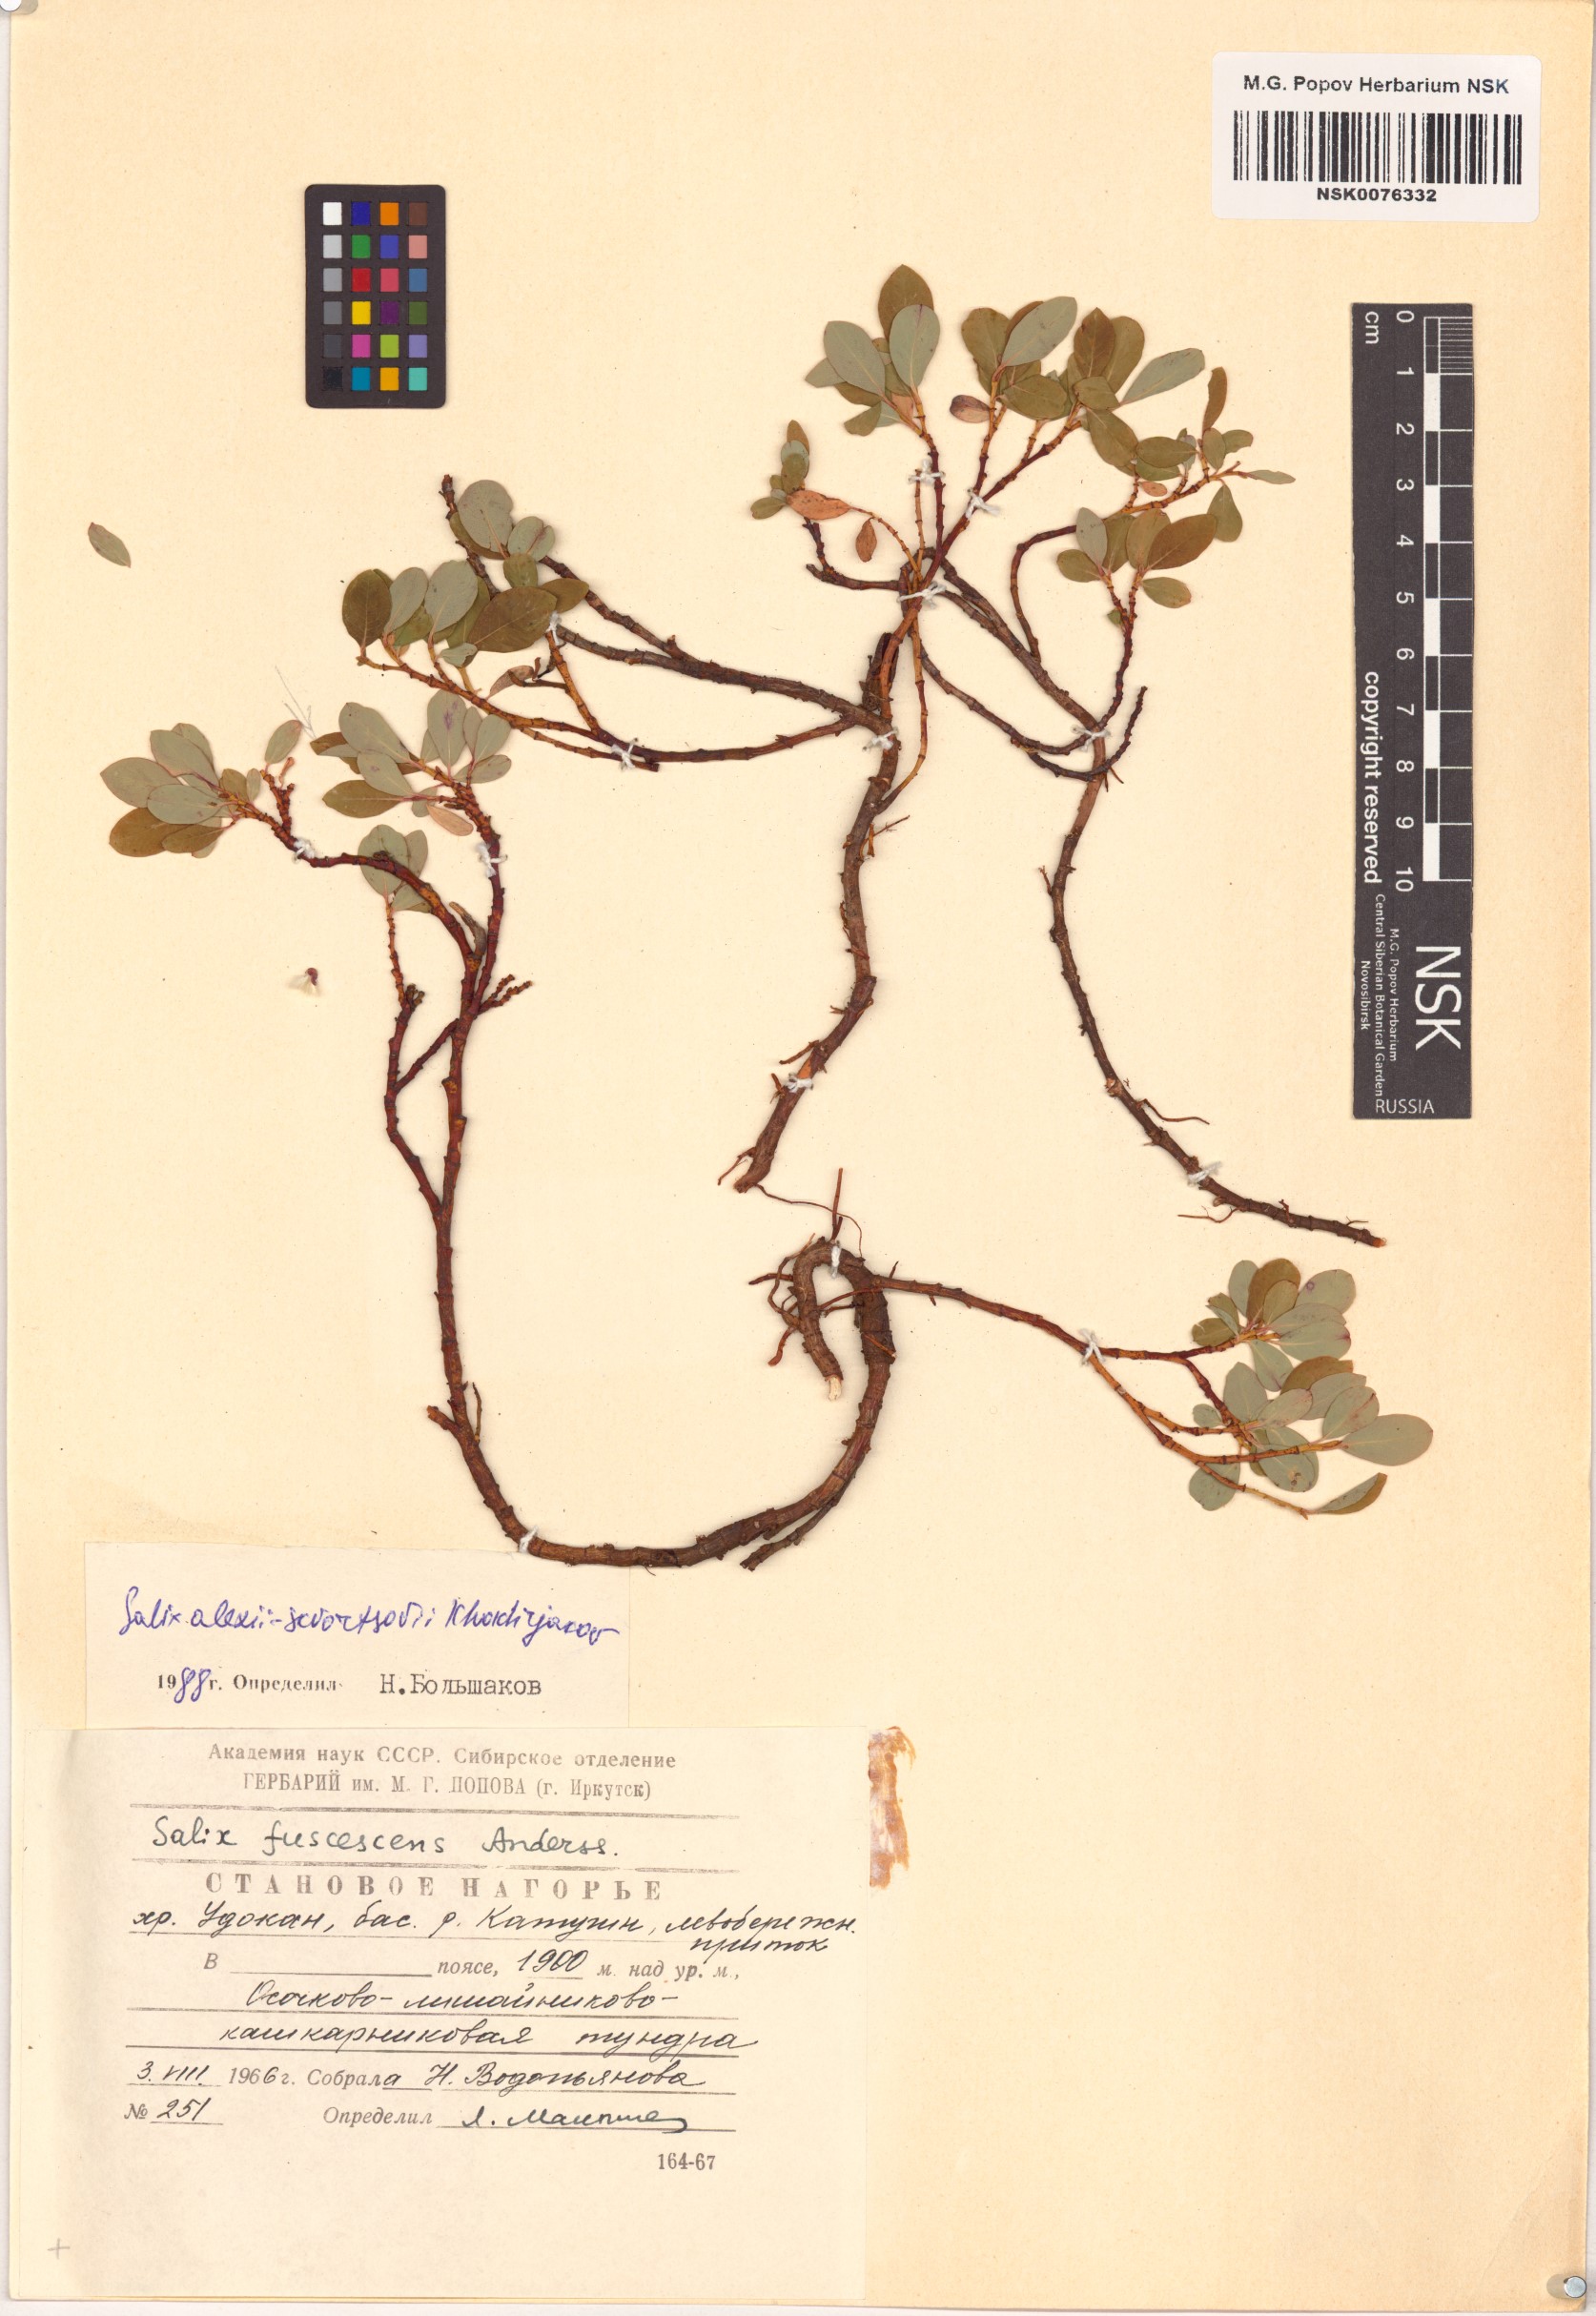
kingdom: Plantae
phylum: Tracheophyta
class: Magnoliopsida
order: Malpighiales
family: Salicaceae
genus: Salix
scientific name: Salix alexii-skvortzovii
